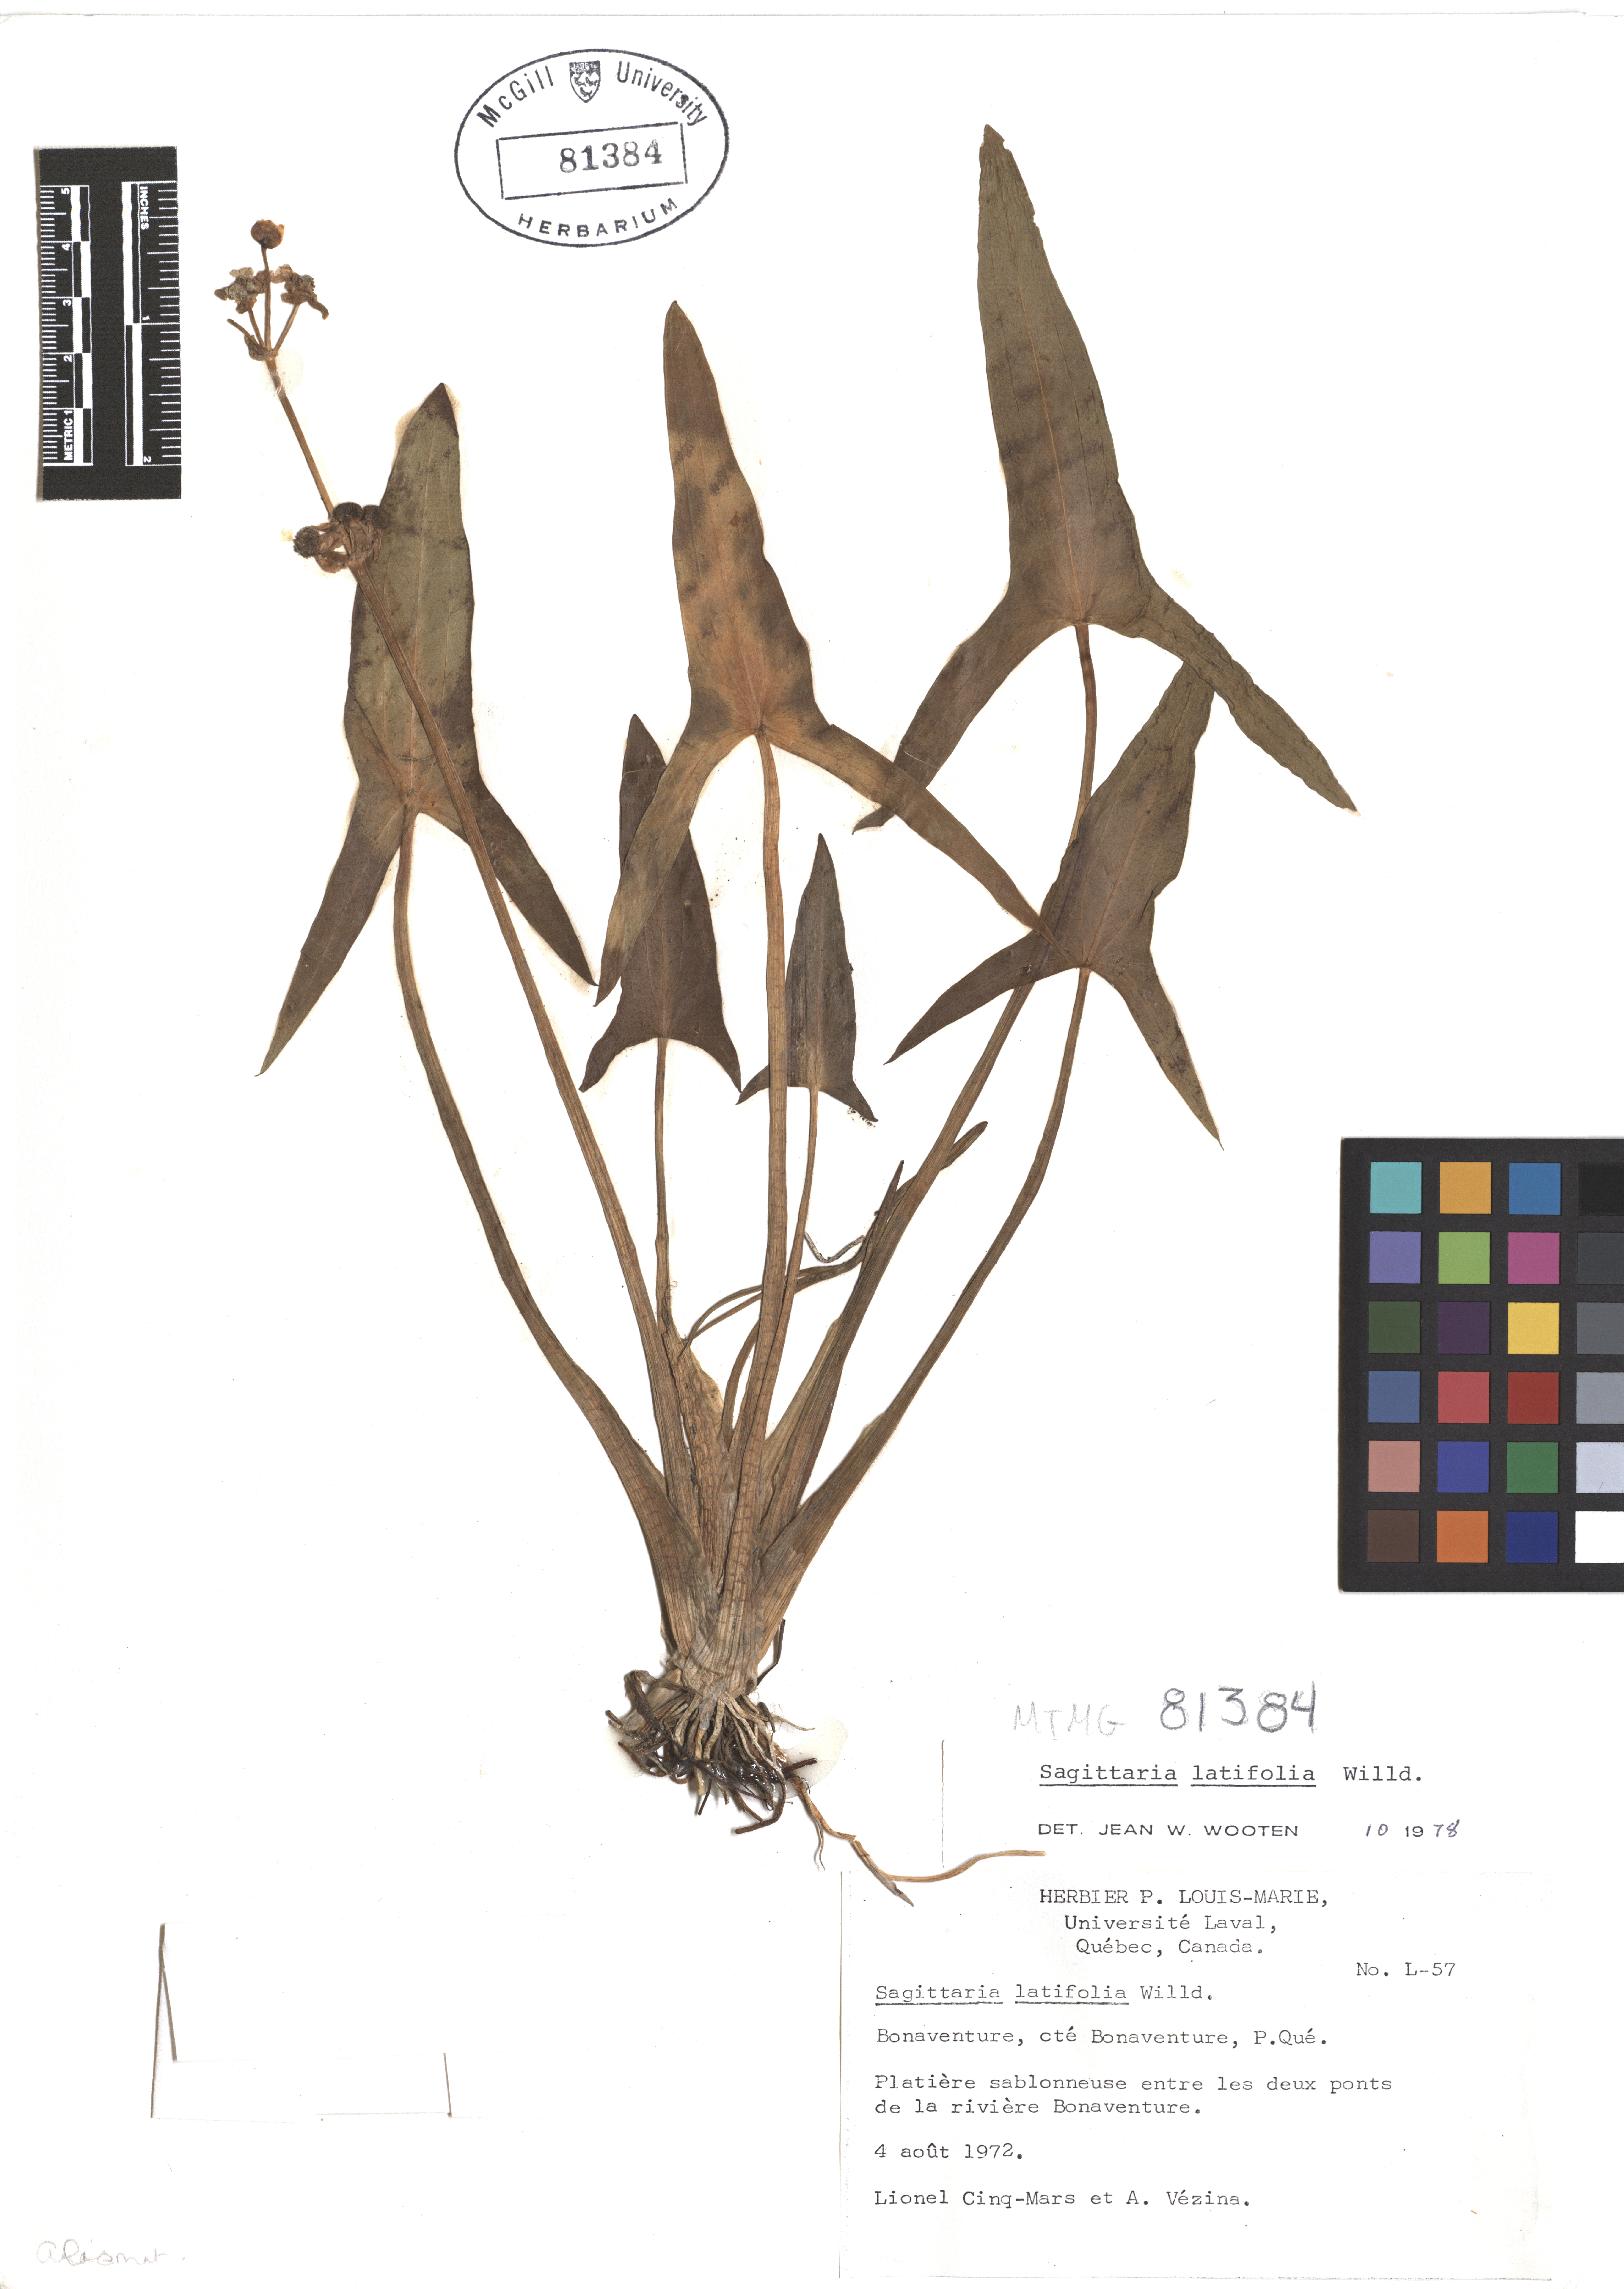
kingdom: Plantae
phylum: Tracheophyta
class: Liliopsida
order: Alismatales
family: Alismataceae
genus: Sagittaria
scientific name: Sagittaria latifolia
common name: Duck-potato
